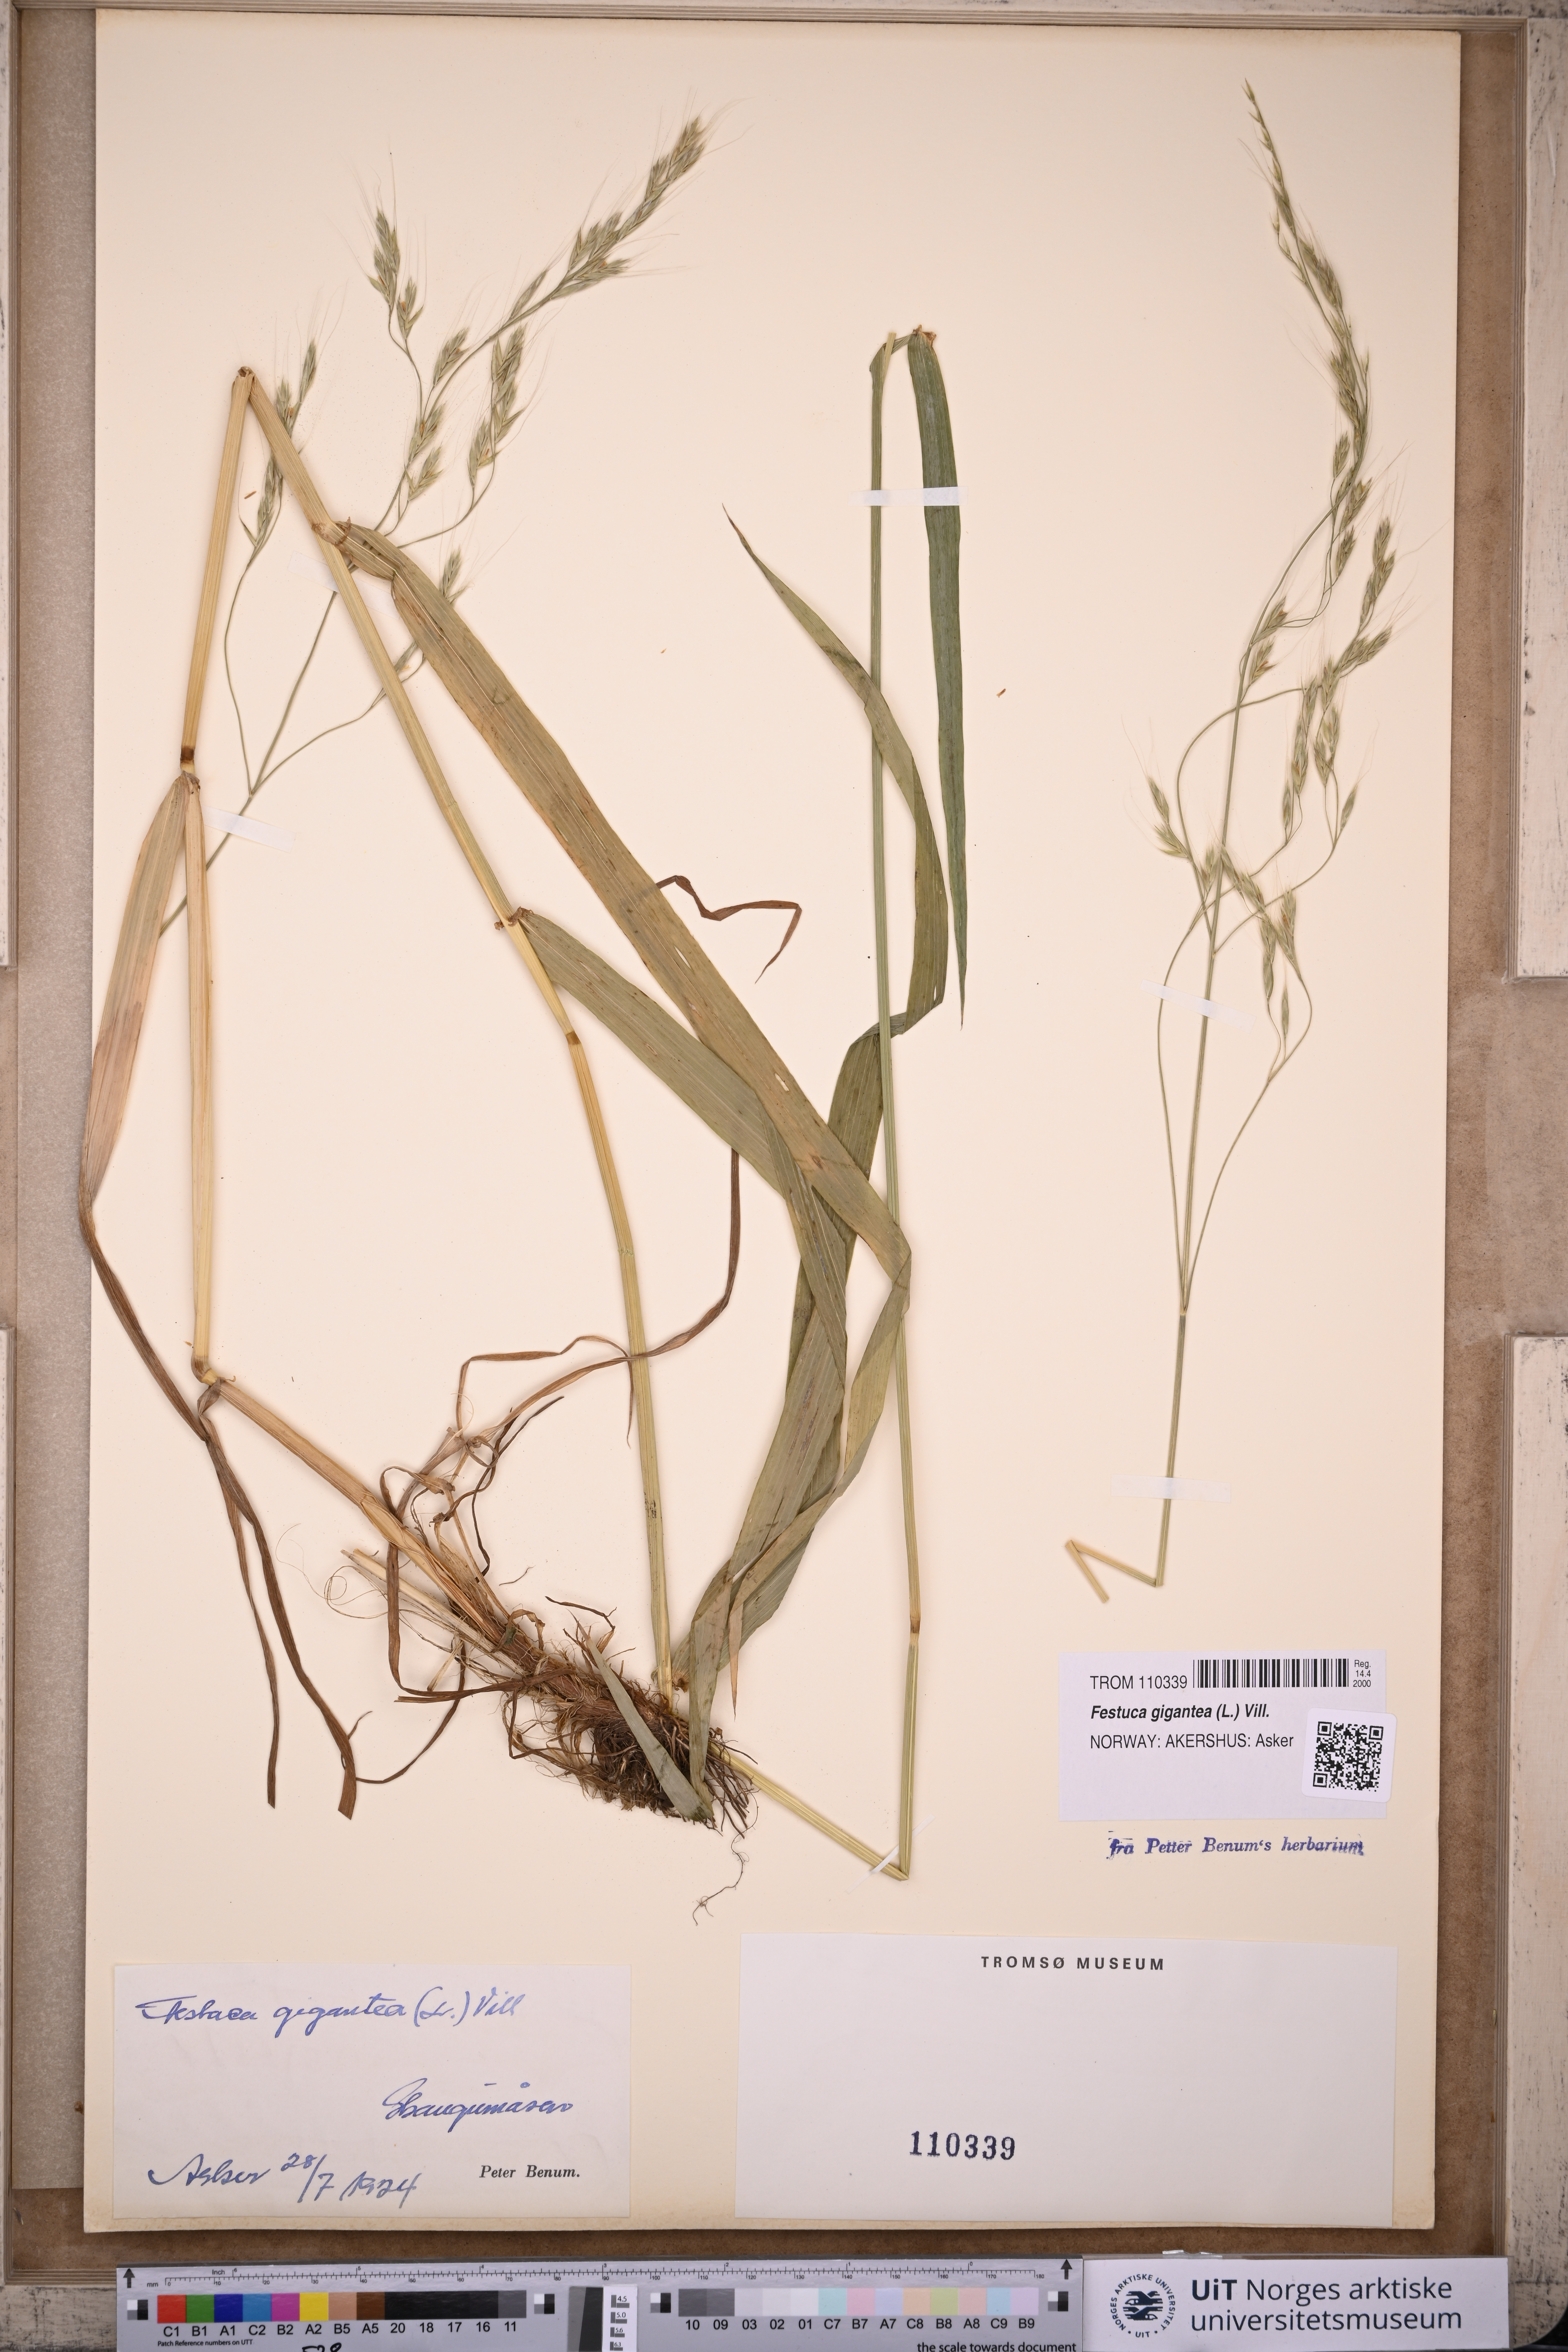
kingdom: Plantae
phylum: Tracheophyta
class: Liliopsida
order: Poales
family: Poaceae
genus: Lolium
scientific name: Lolium giganteum
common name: Giant fescue
